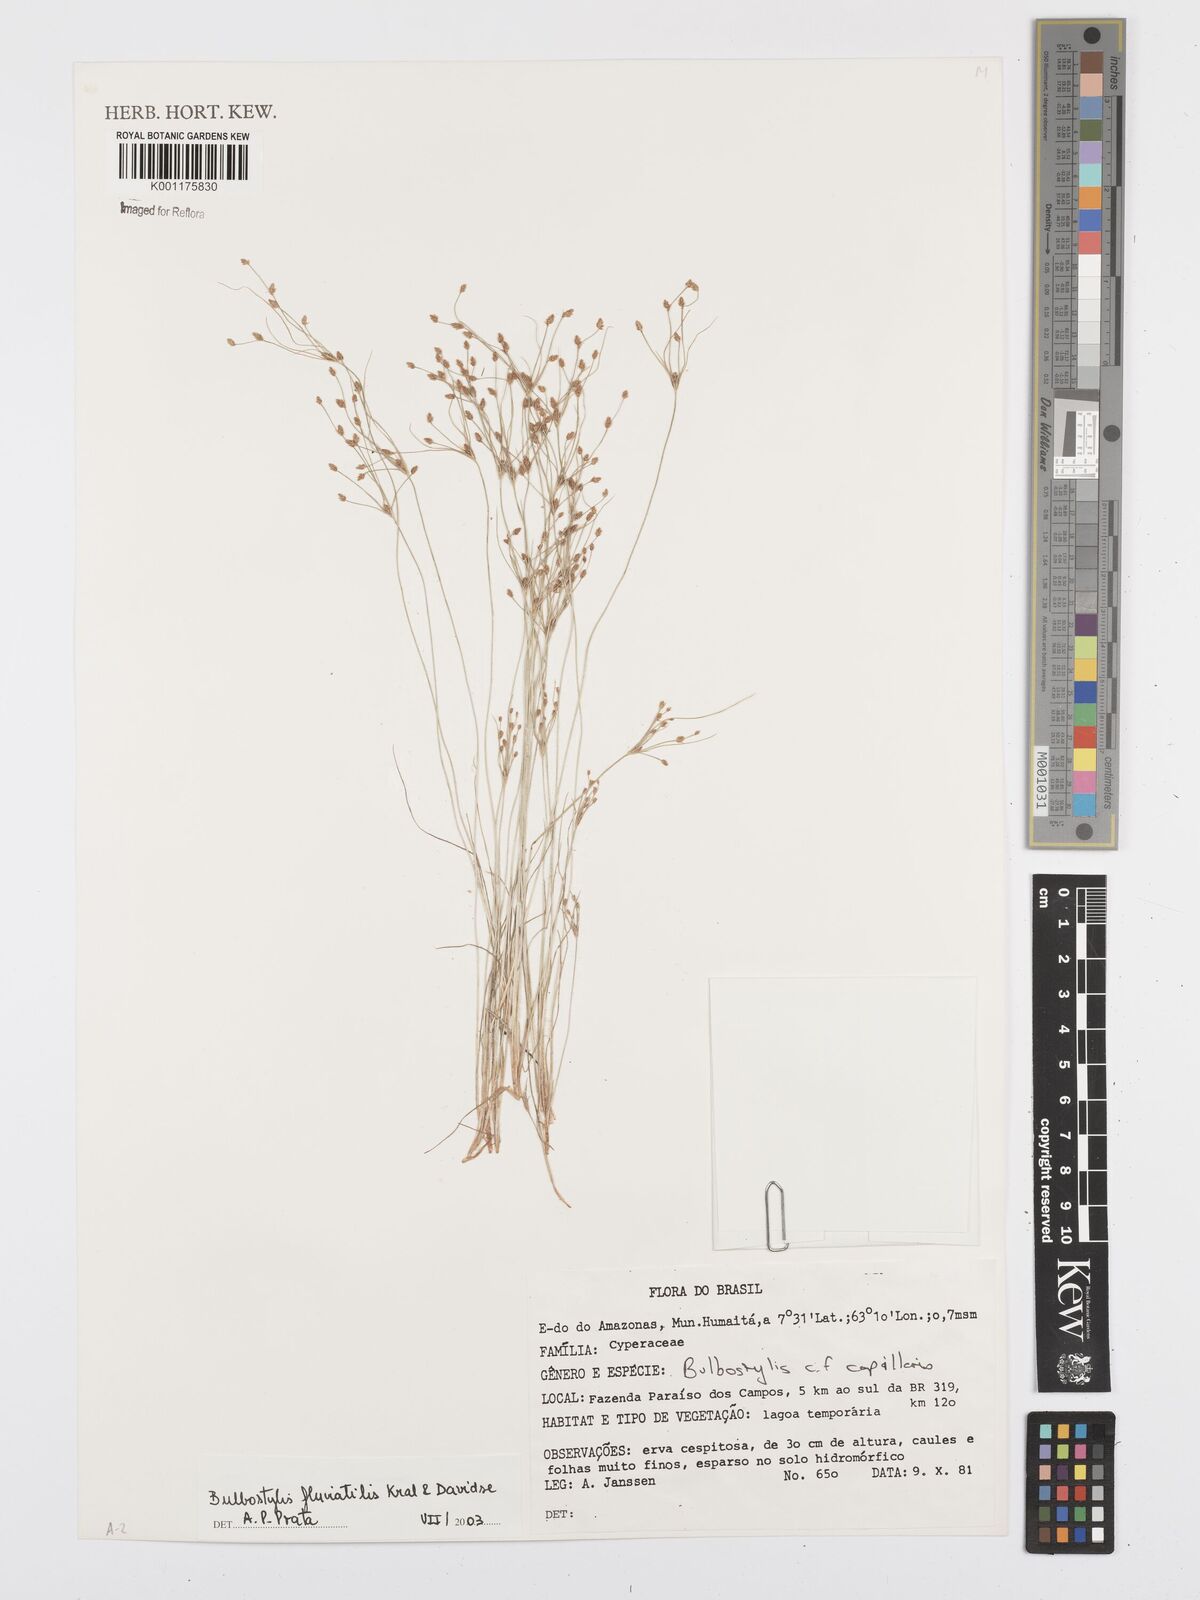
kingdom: Plantae
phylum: Tracheophyta
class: Liliopsida
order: Poales
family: Cyperaceae
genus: Bulbostylis
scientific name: Bulbostylis fluviatilis
